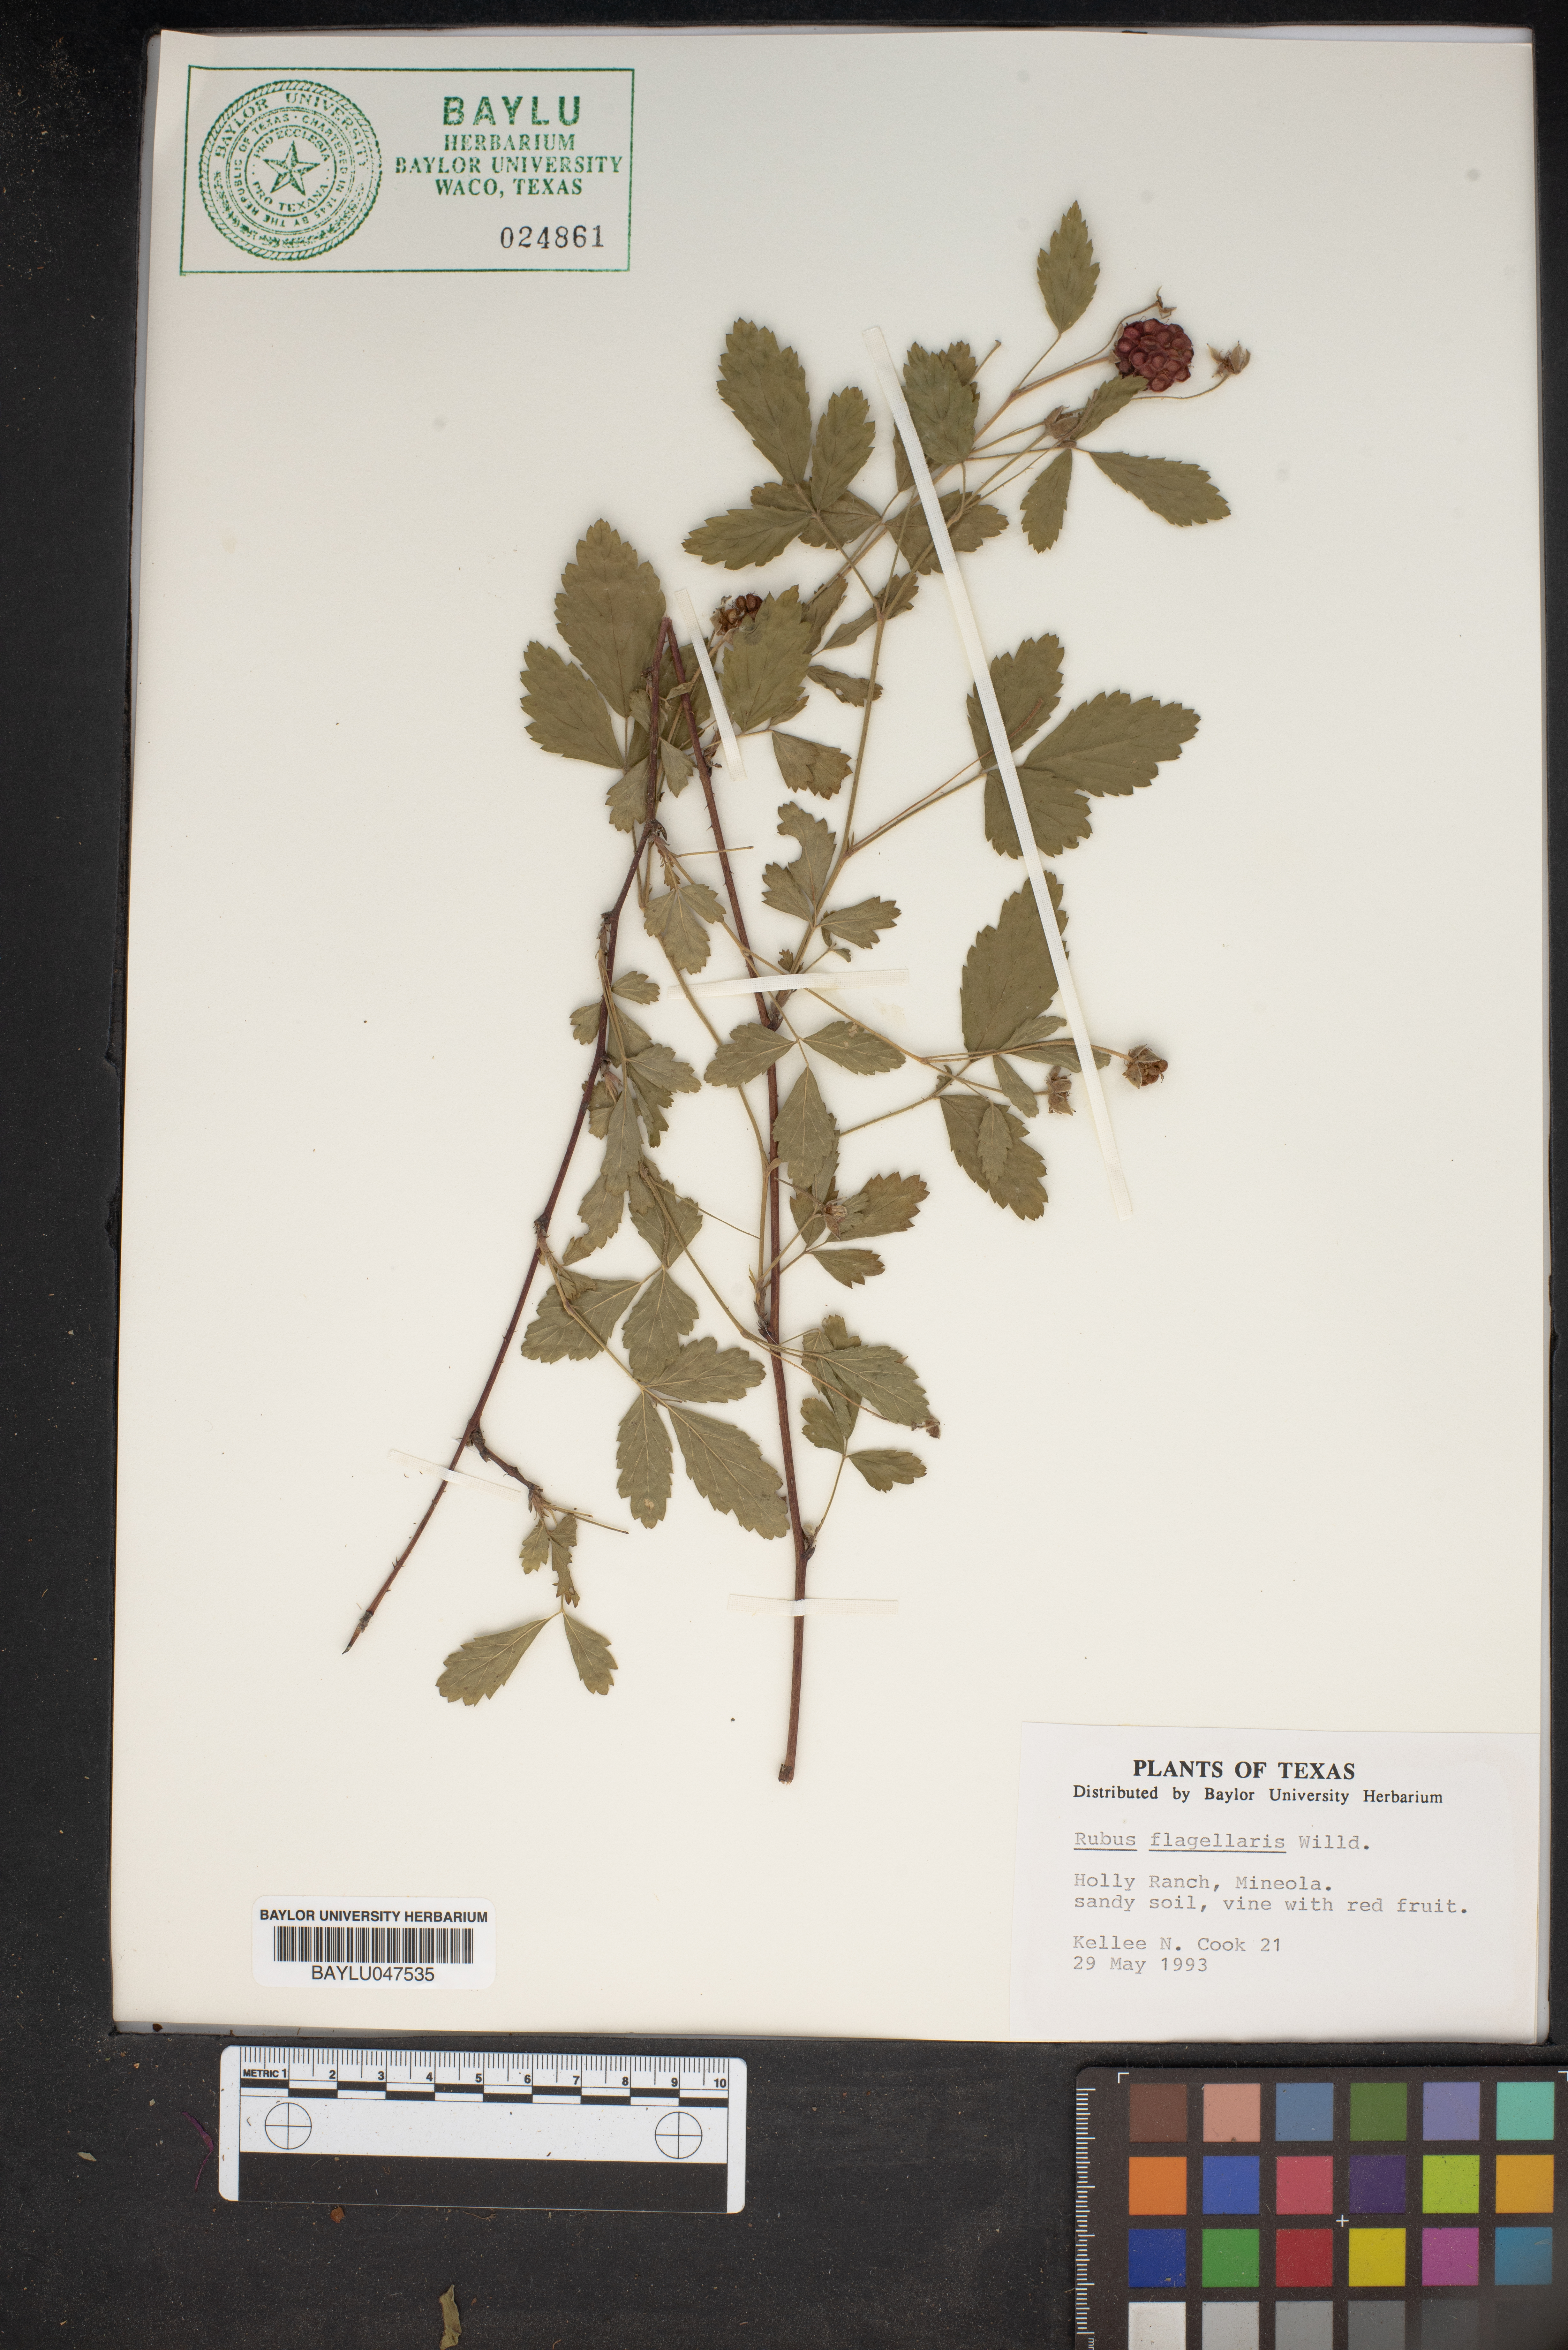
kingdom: Plantae
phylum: Tracheophyta
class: Magnoliopsida
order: Rosales
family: Rosaceae
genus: Rubus
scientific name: Rubus flagellaris
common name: American dewberry
